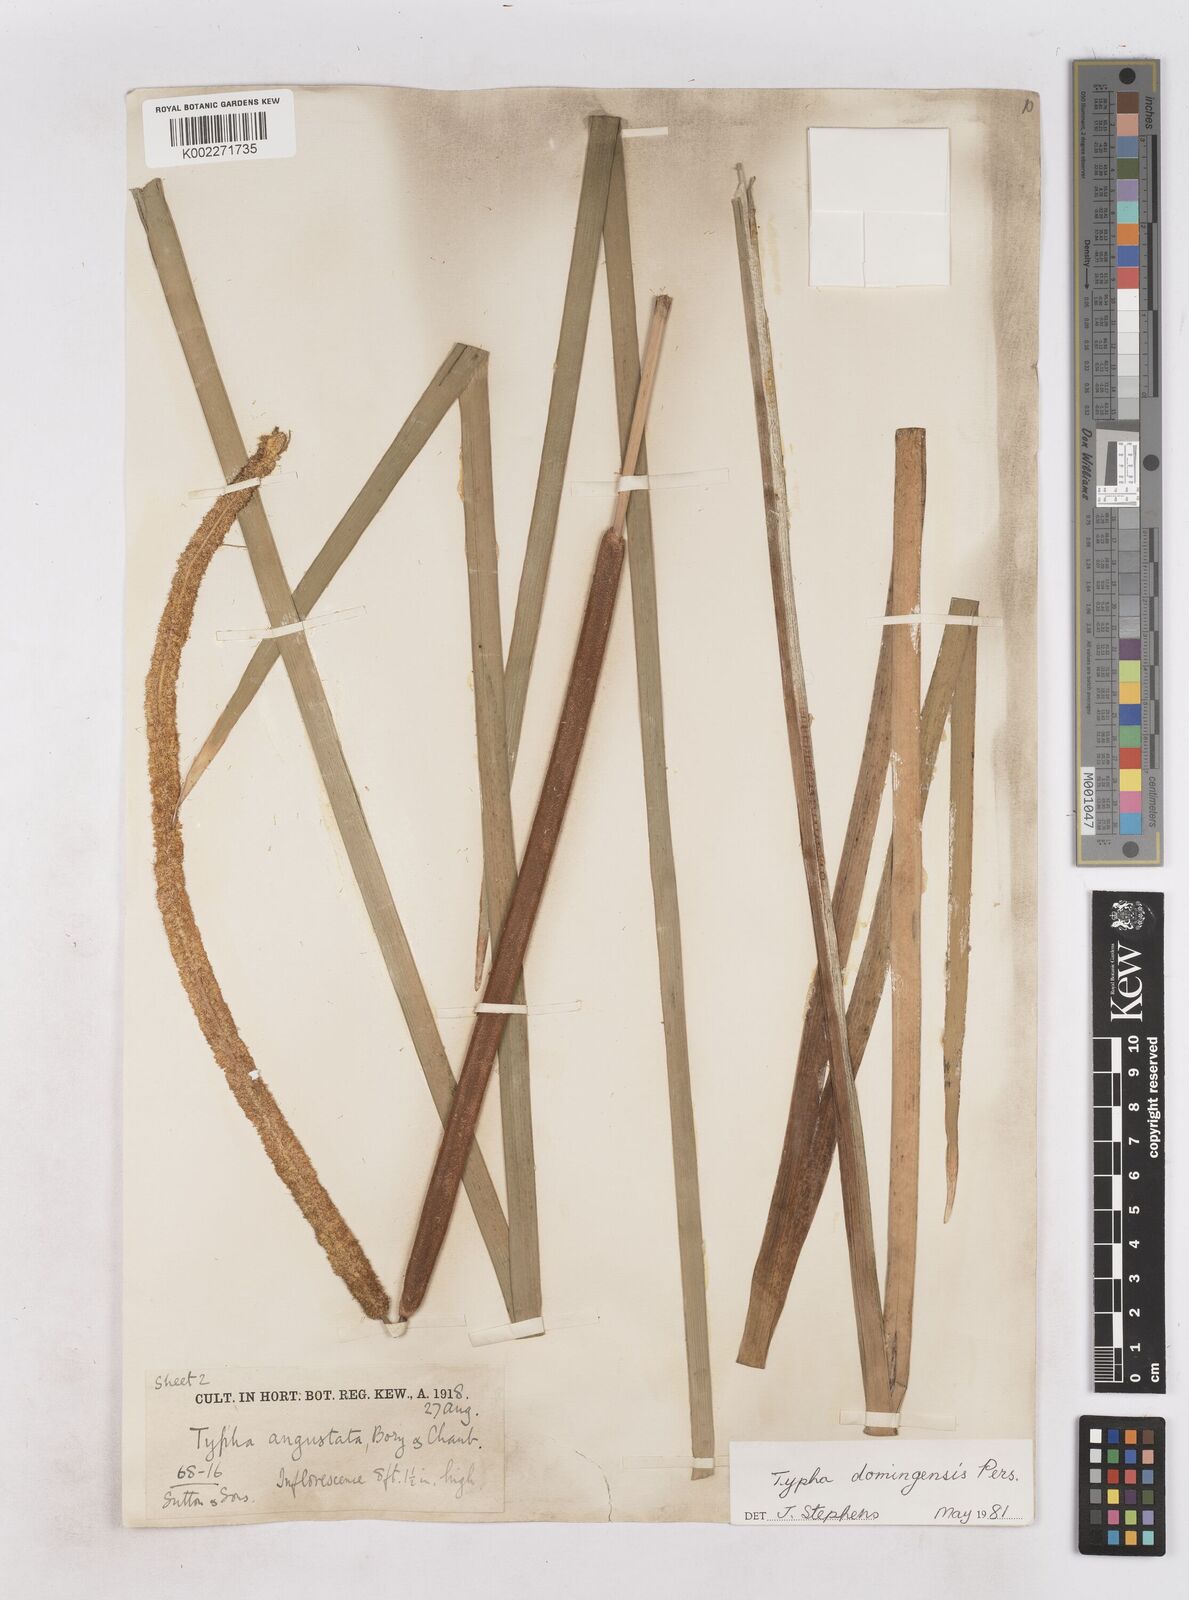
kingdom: Plantae
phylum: Tracheophyta
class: Liliopsida
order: Poales
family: Typhaceae
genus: Typha
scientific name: Typha domingensis
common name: Southern cattail
